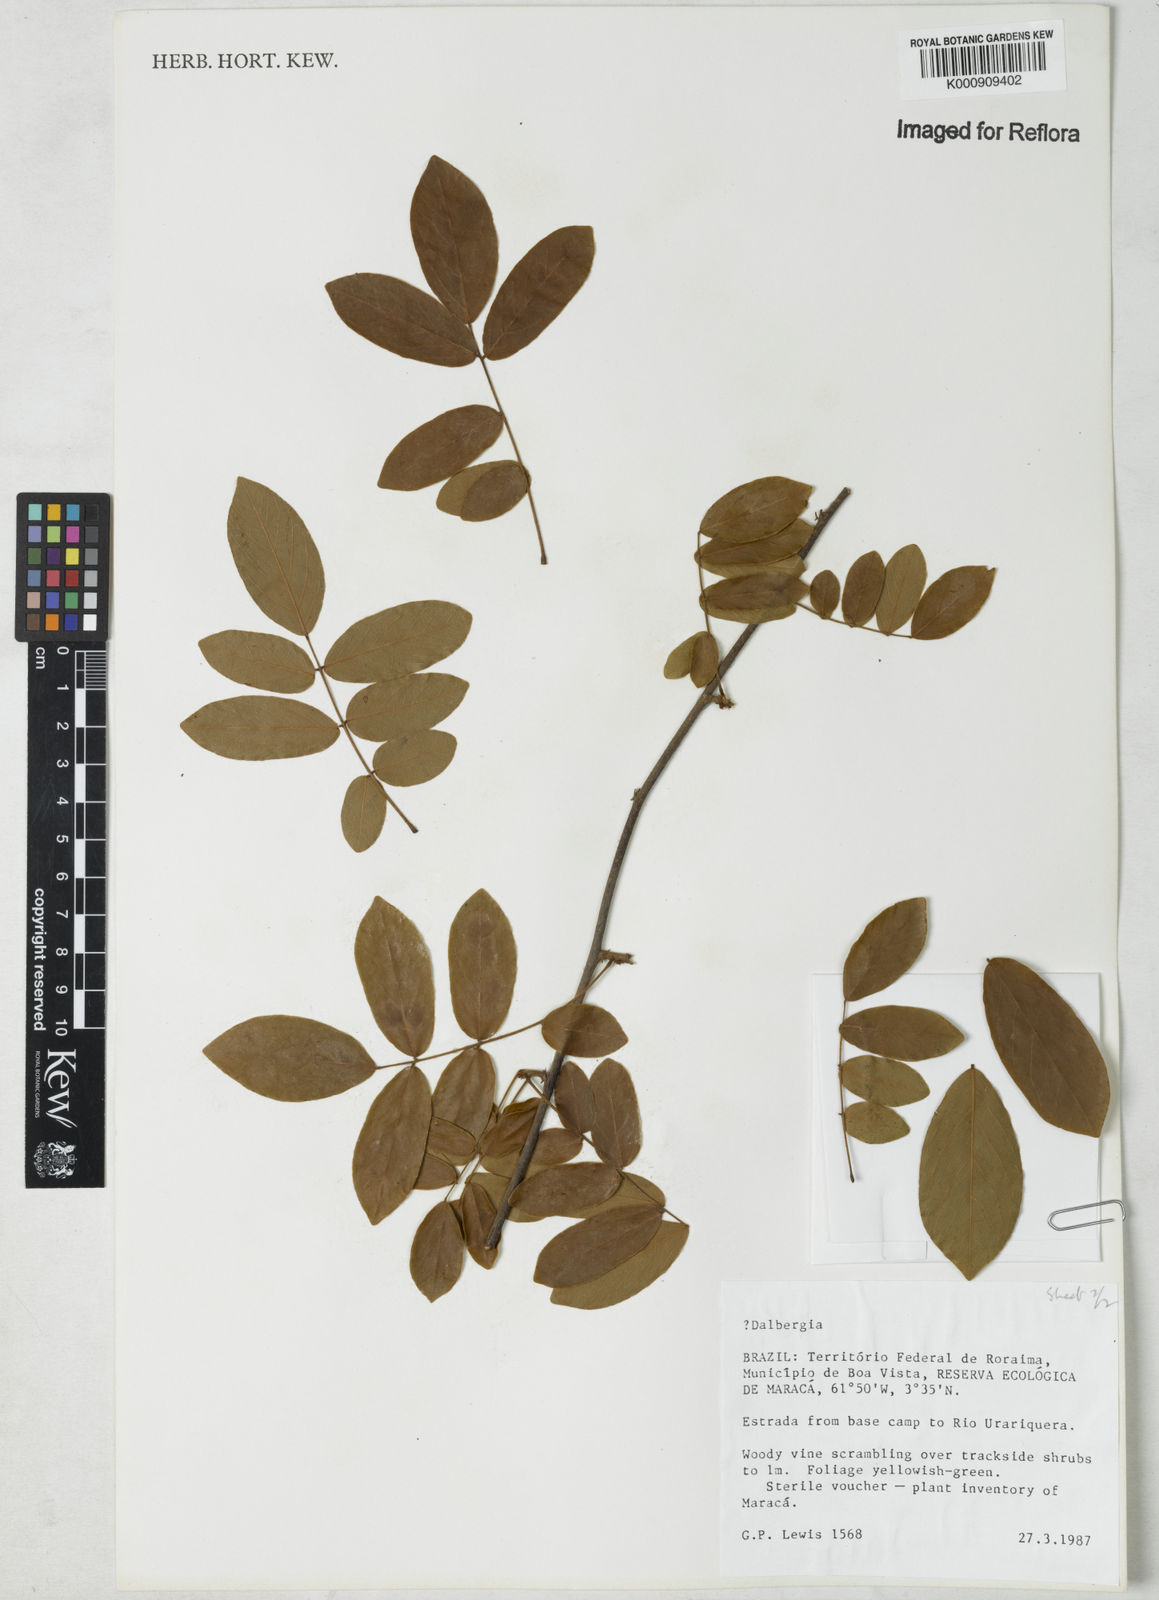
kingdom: Plantae
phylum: Tracheophyta
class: Magnoliopsida
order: Fabales
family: Fabaceae
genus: Dalbergia
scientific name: Dalbergia
